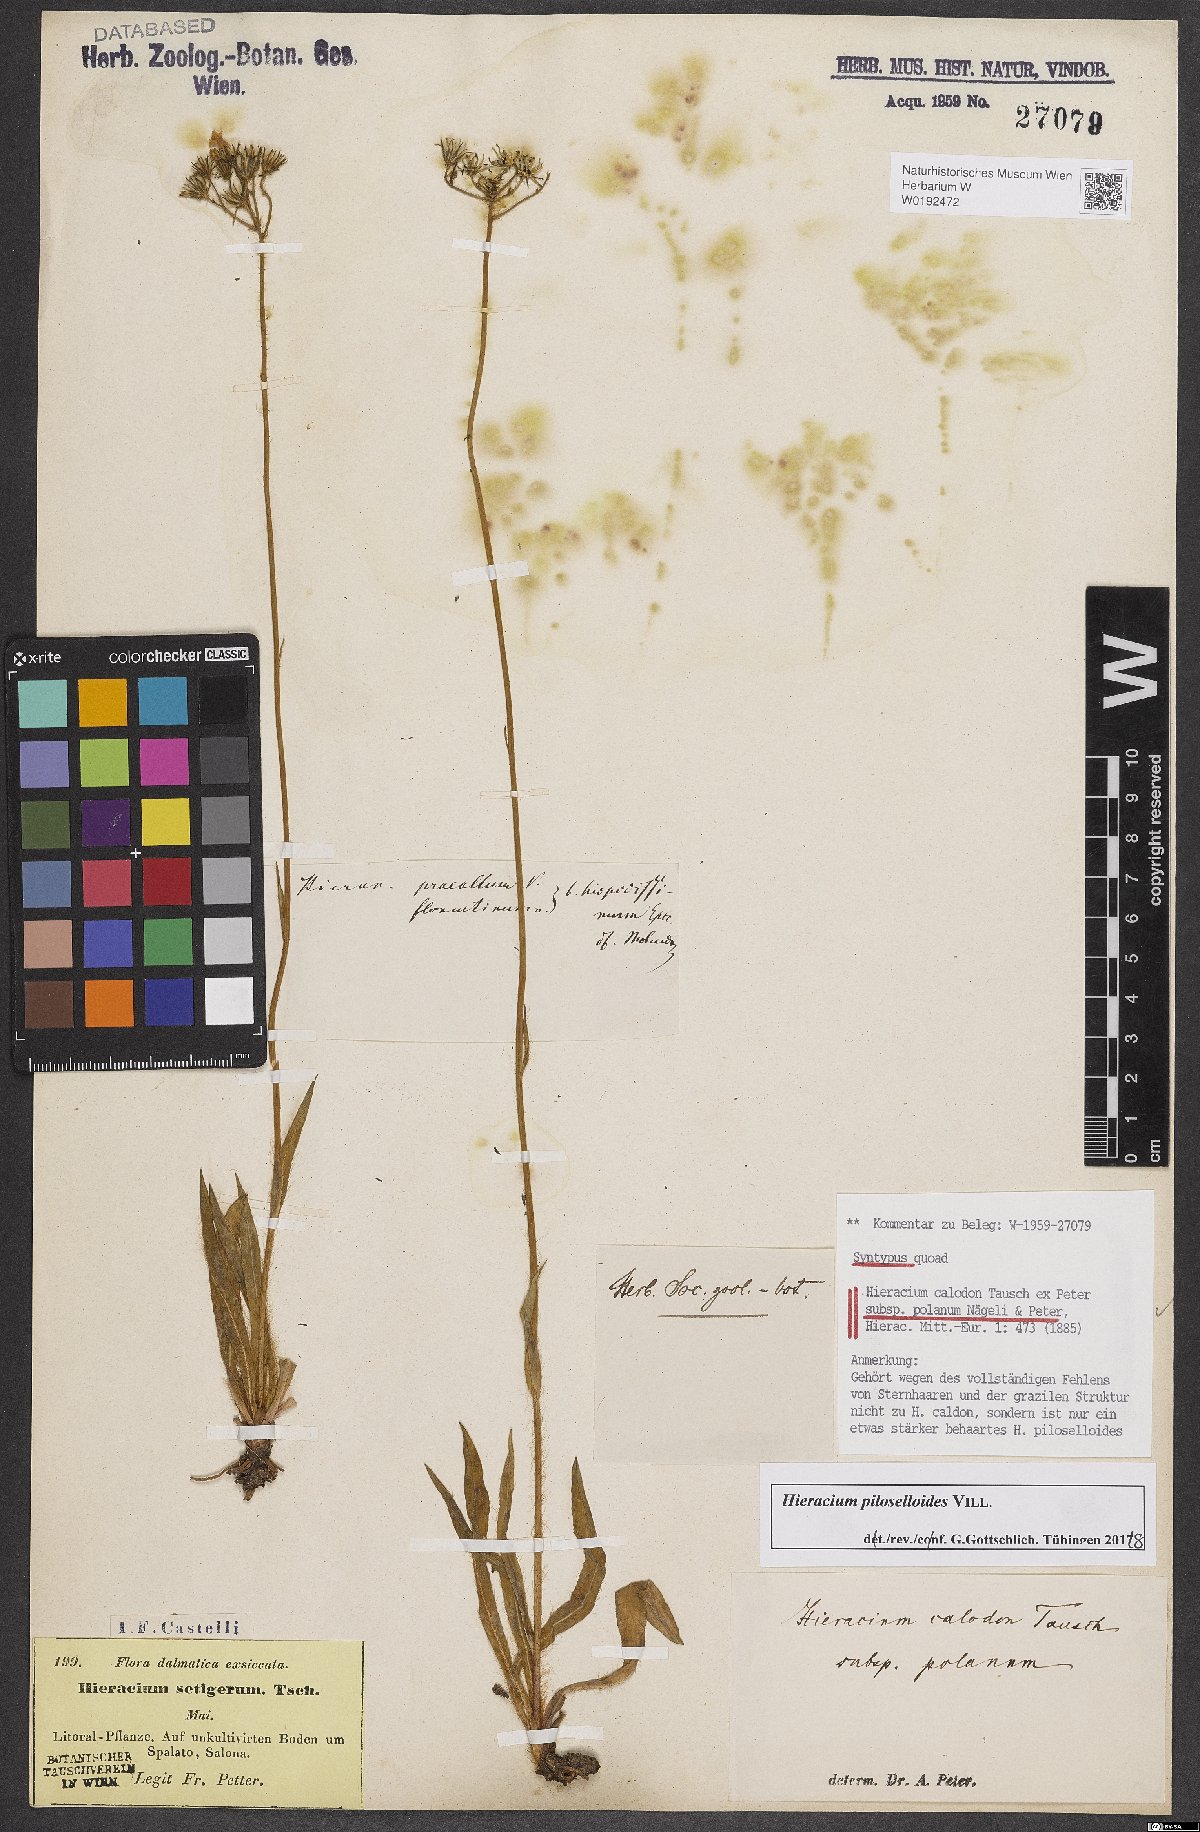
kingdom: Plantae
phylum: Tracheophyta
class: Magnoliopsida
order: Asterales
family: Asteraceae
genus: Pilosella
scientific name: Pilosella calodon
